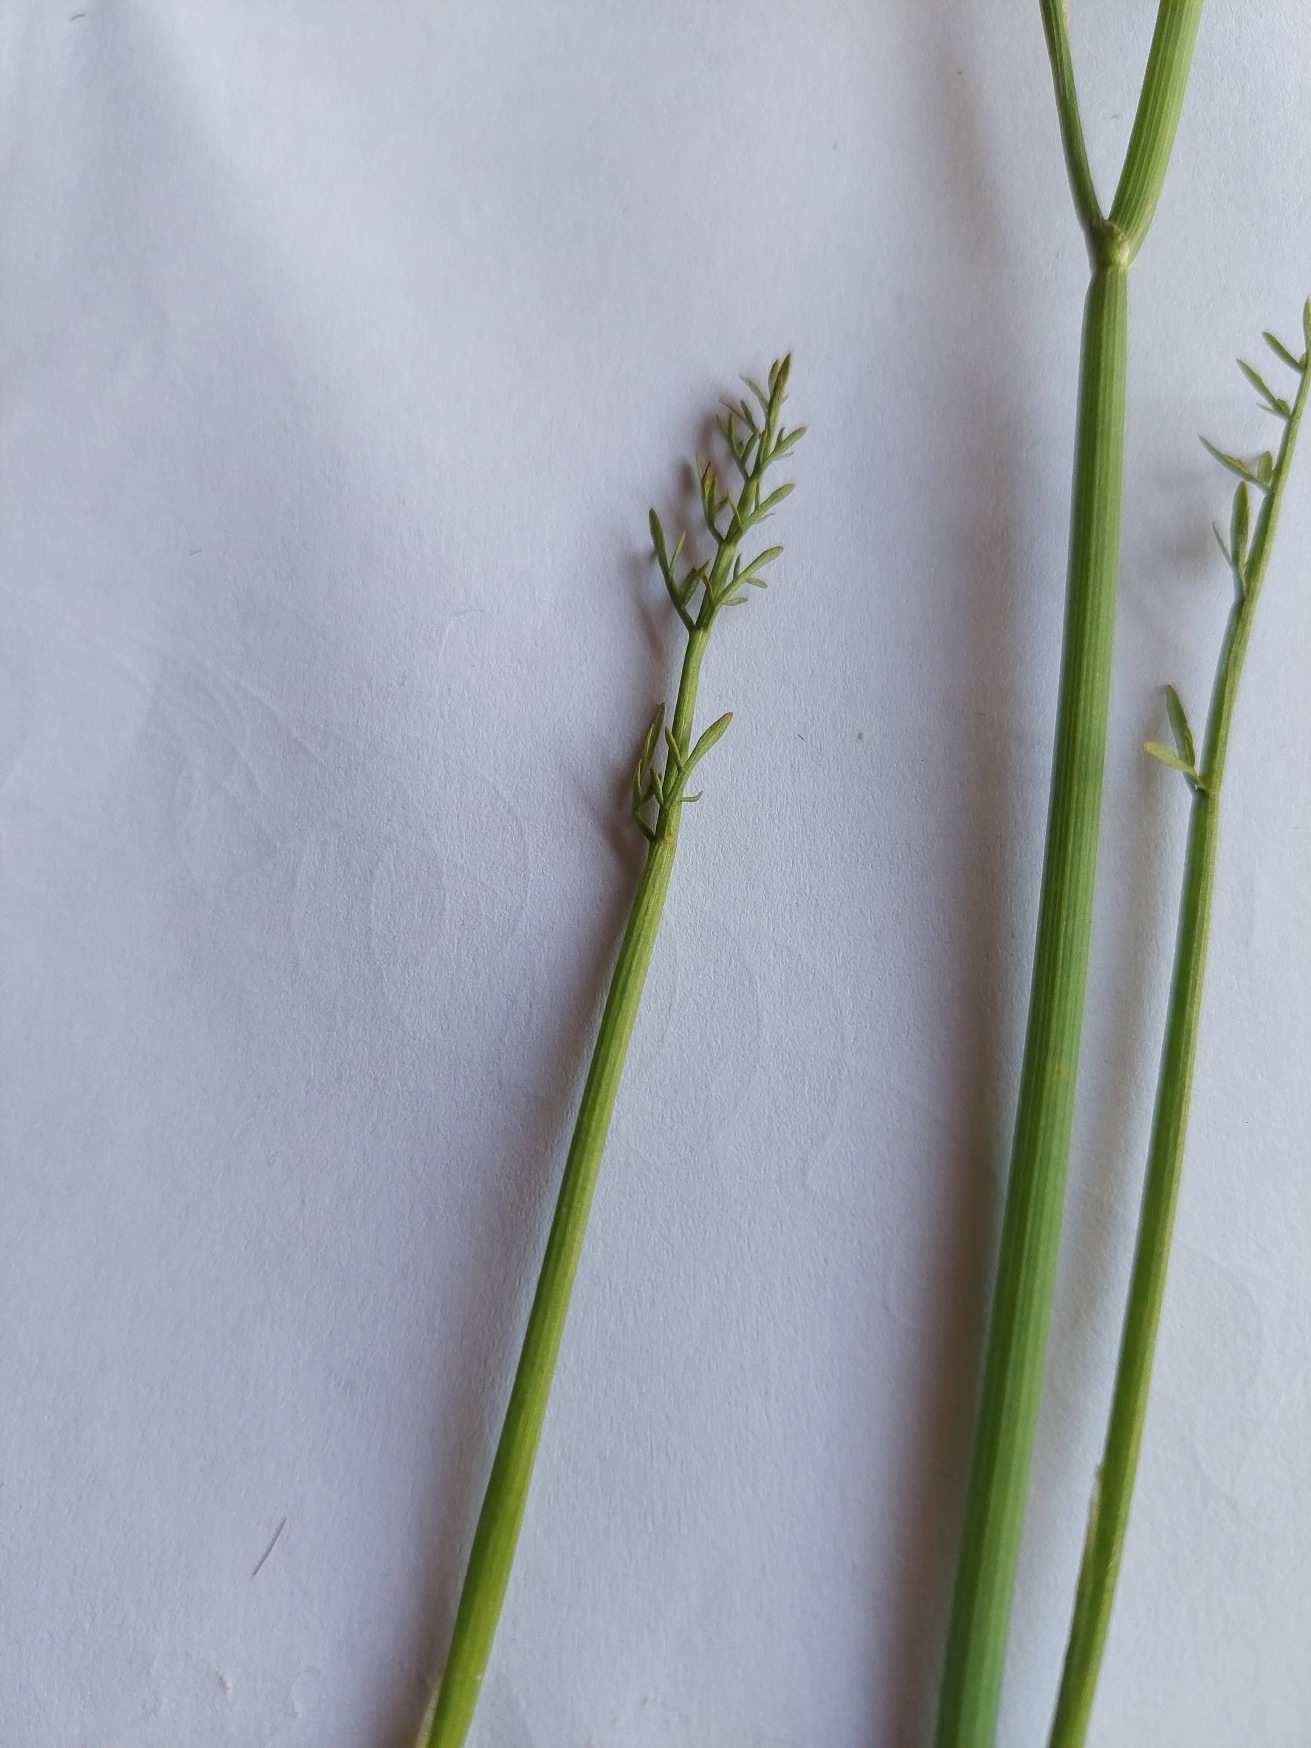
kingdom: Plantae
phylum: Tracheophyta
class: Magnoliopsida
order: Apiales
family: Apiaceae
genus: Oenanthe
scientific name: Oenanthe fistulosa
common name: Vand-klaseskærm
